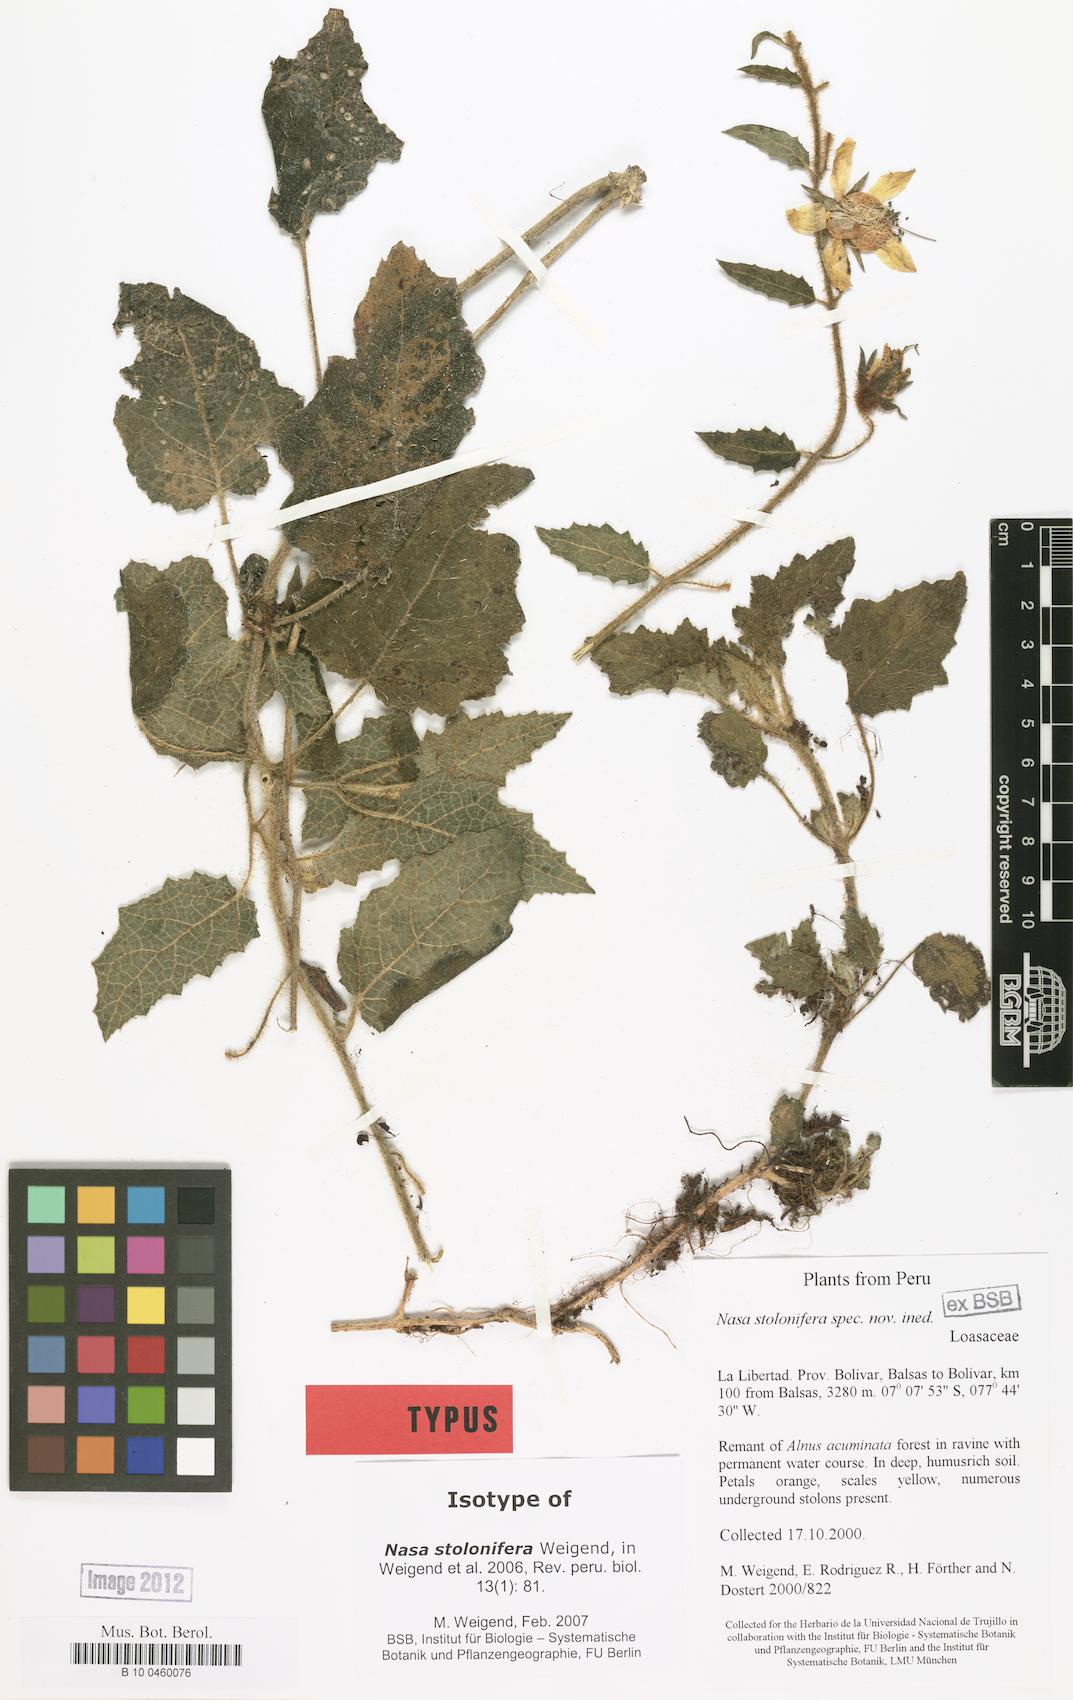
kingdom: Plantae
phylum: Tracheophyta
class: Magnoliopsida
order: Cornales
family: Loasaceae
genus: Nasa
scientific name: Nasa stolonifera
